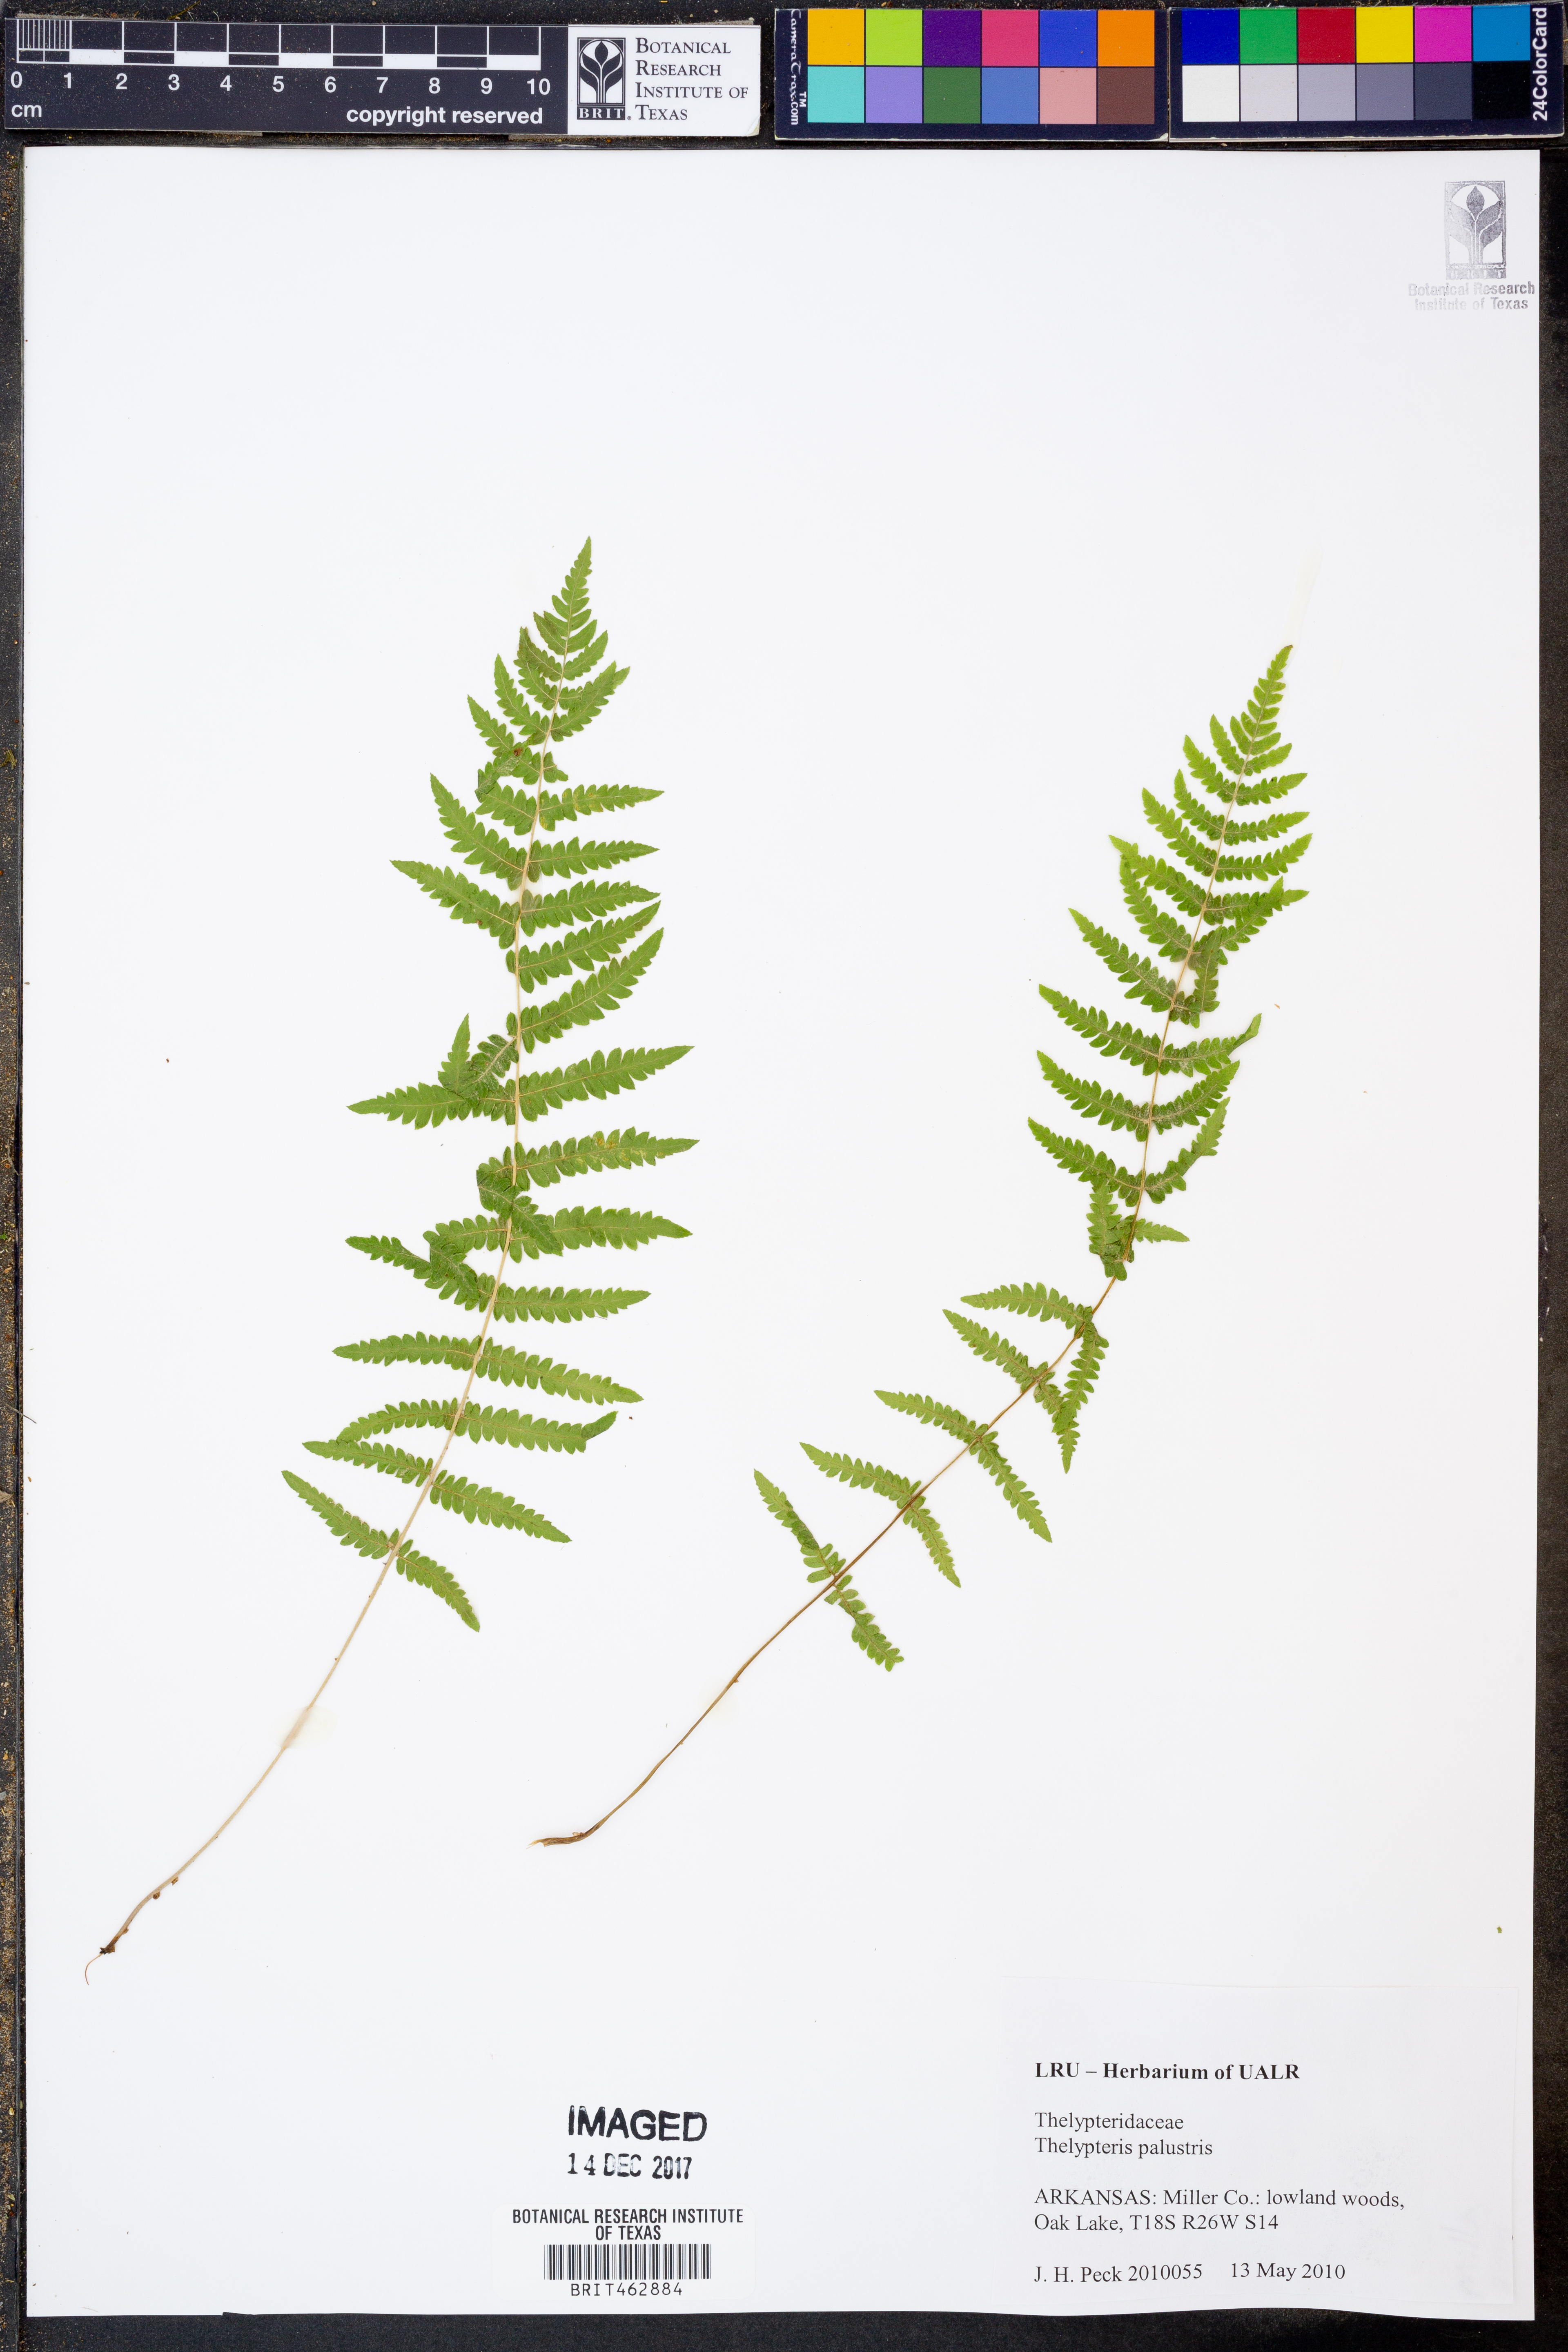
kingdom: Plantae
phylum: Tracheophyta
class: Polypodiopsida
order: Polypodiales
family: Thelypteridaceae
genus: Thelypteris
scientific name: Thelypteris palustris
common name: Marsh fern
